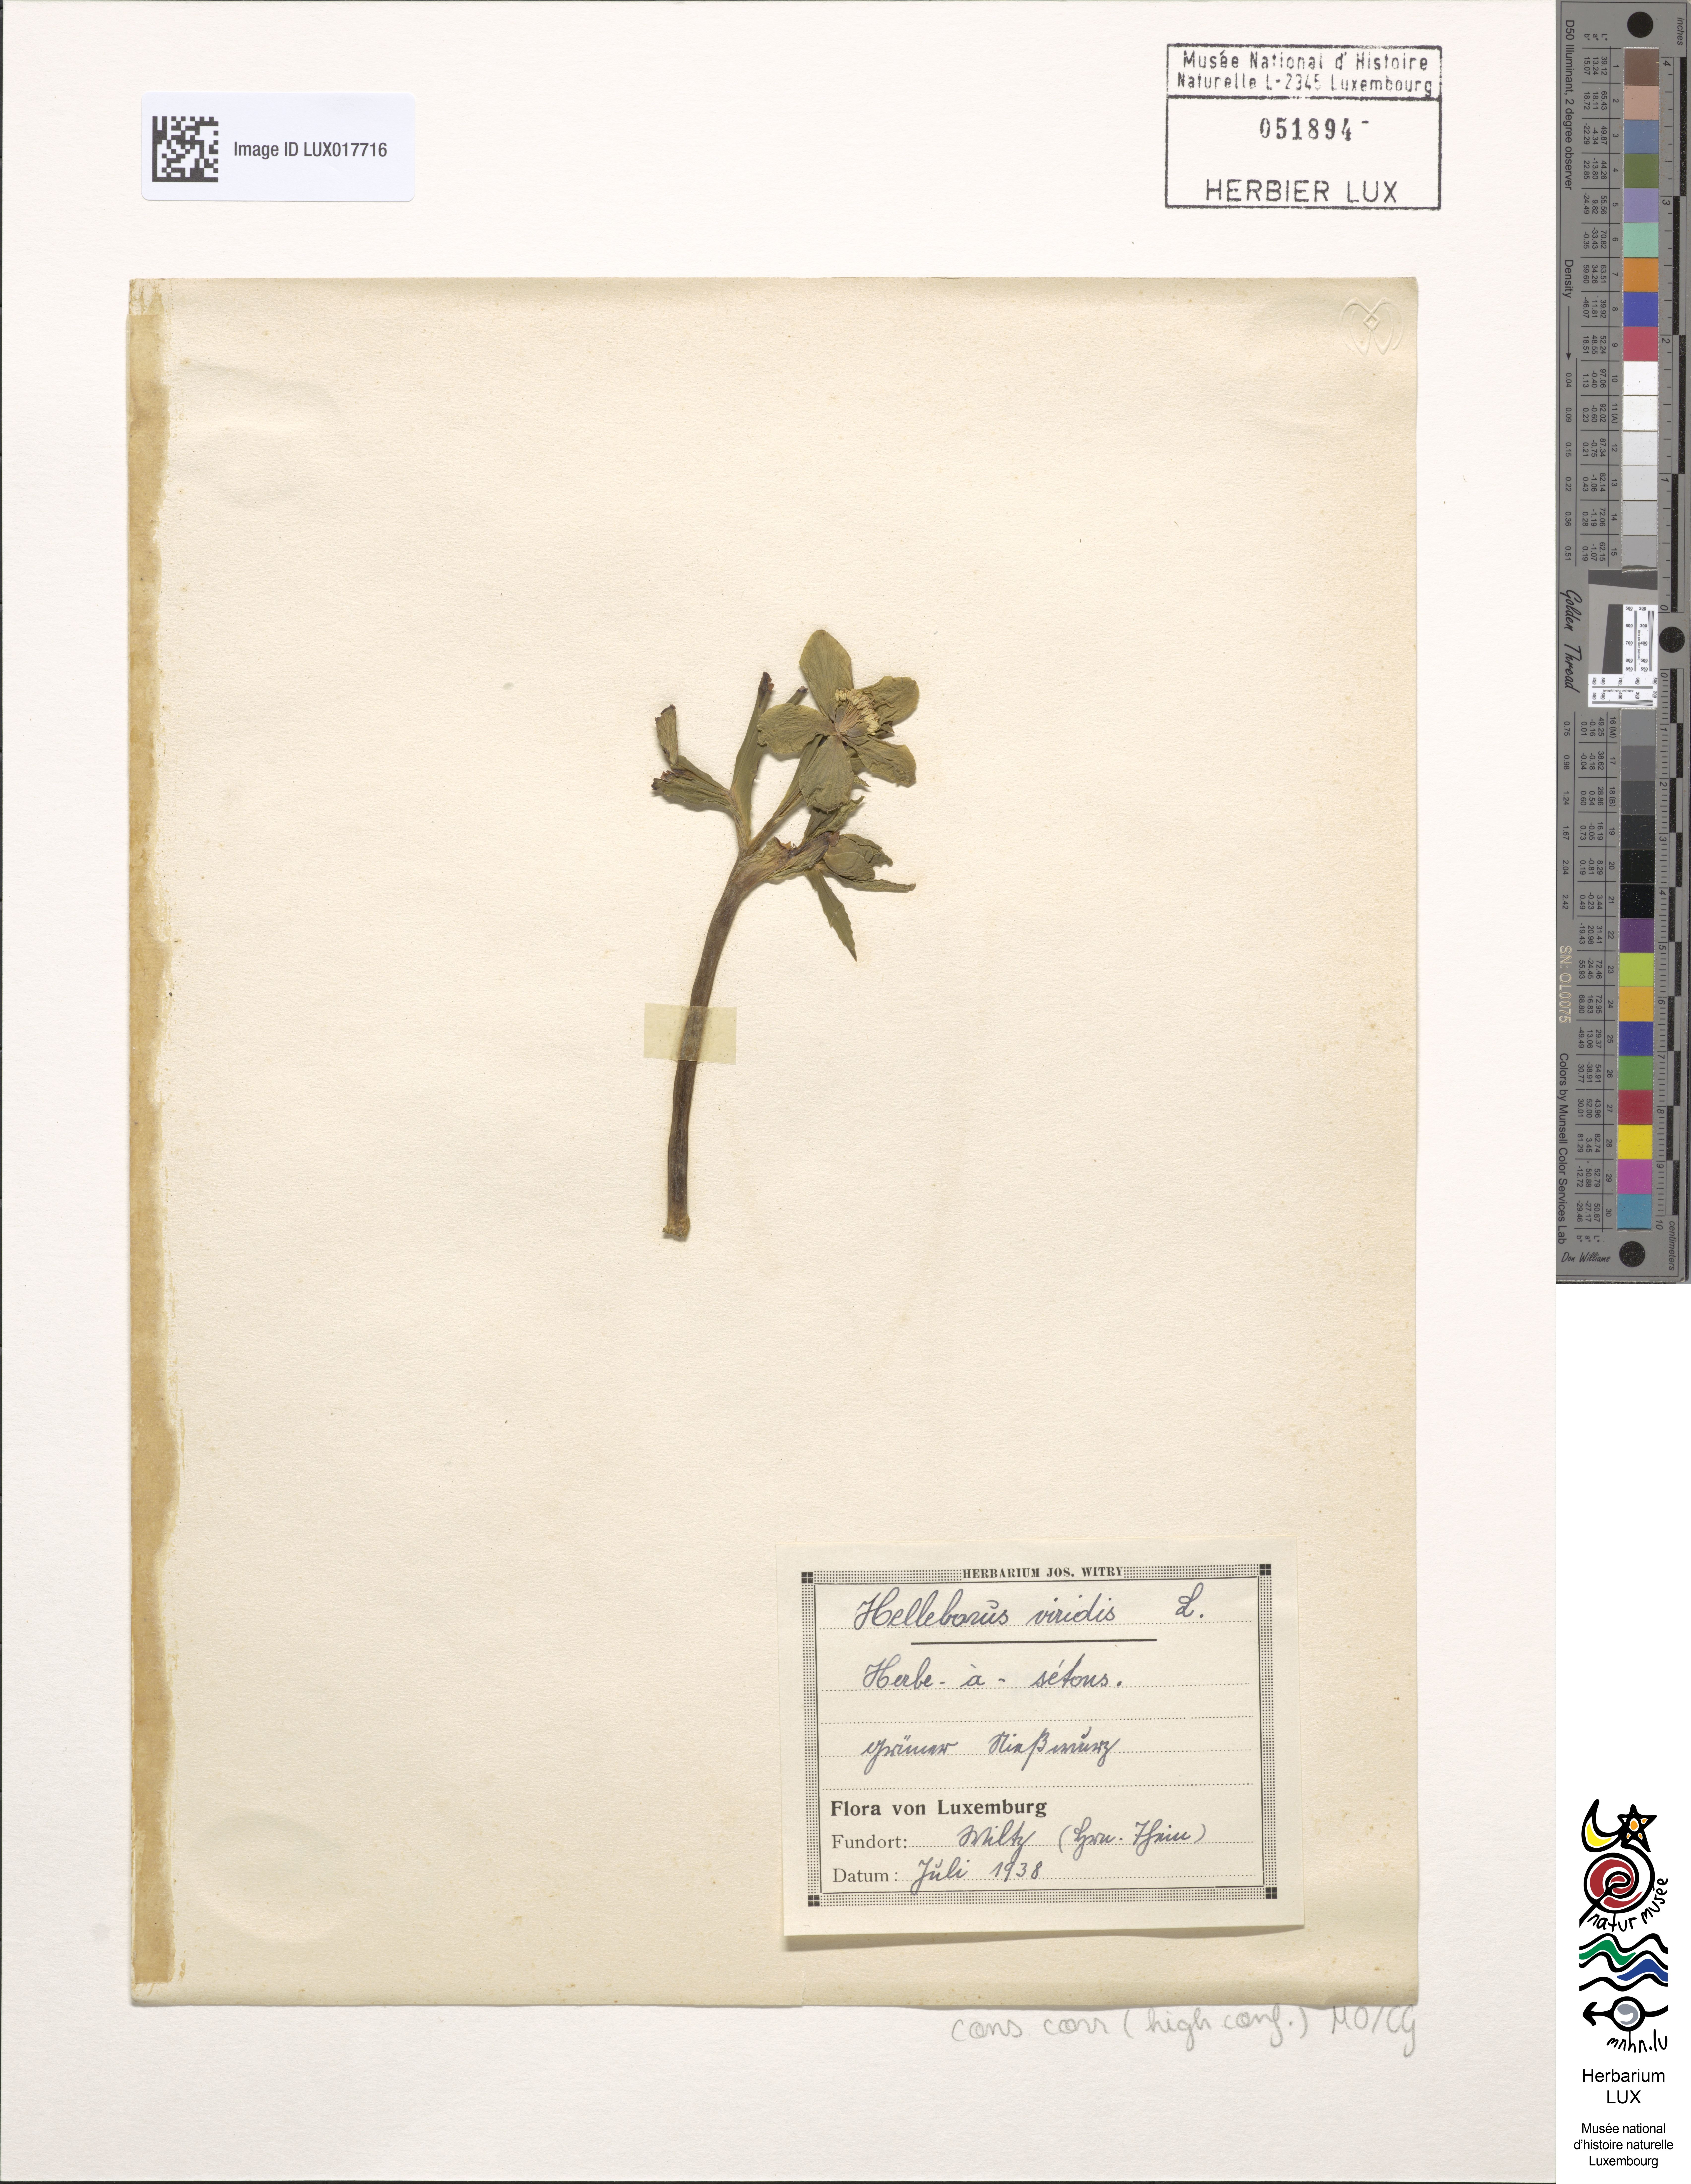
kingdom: Plantae
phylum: Tracheophyta
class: Magnoliopsida
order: Ranunculales
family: Ranunculaceae
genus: Helleborus
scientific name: Helleborus viridis
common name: Green hellebore
